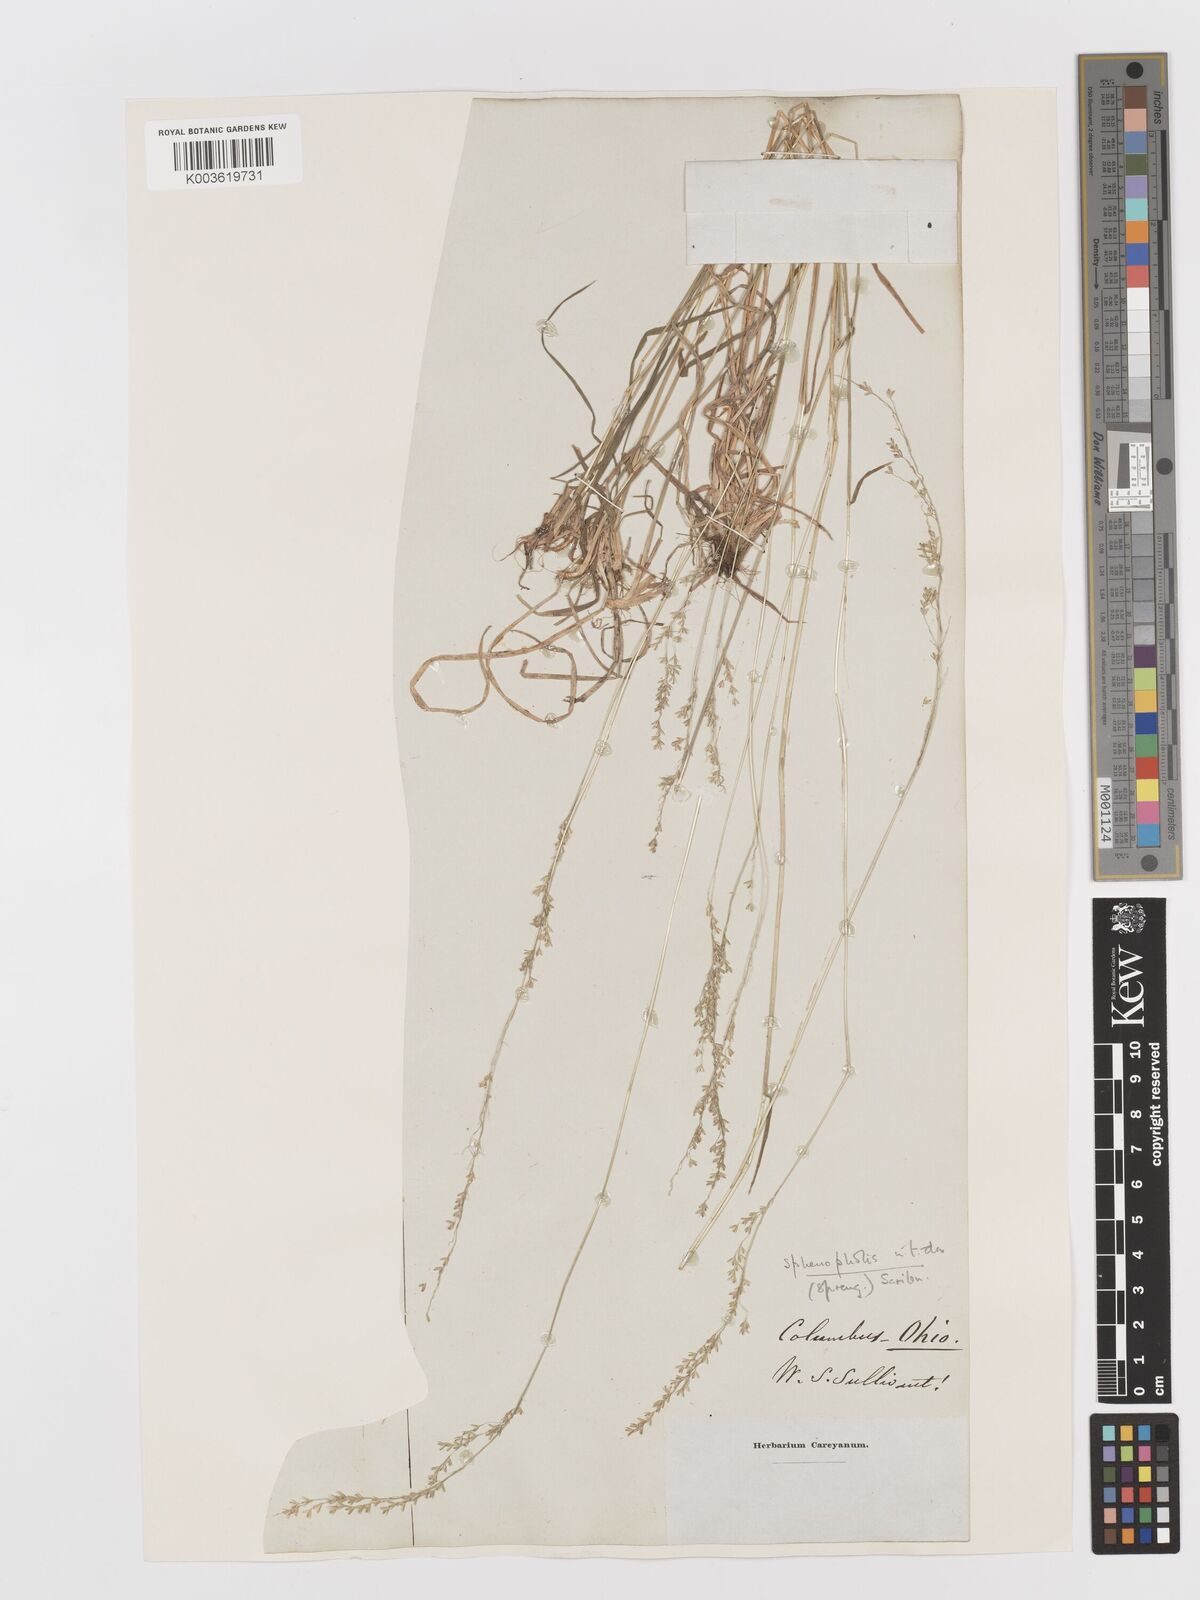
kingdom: Plantae
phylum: Tracheophyta
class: Liliopsida
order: Poales
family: Poaceae
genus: Sphenopholis
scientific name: Sphenopholis nitida
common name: Shiny wedgegrass
